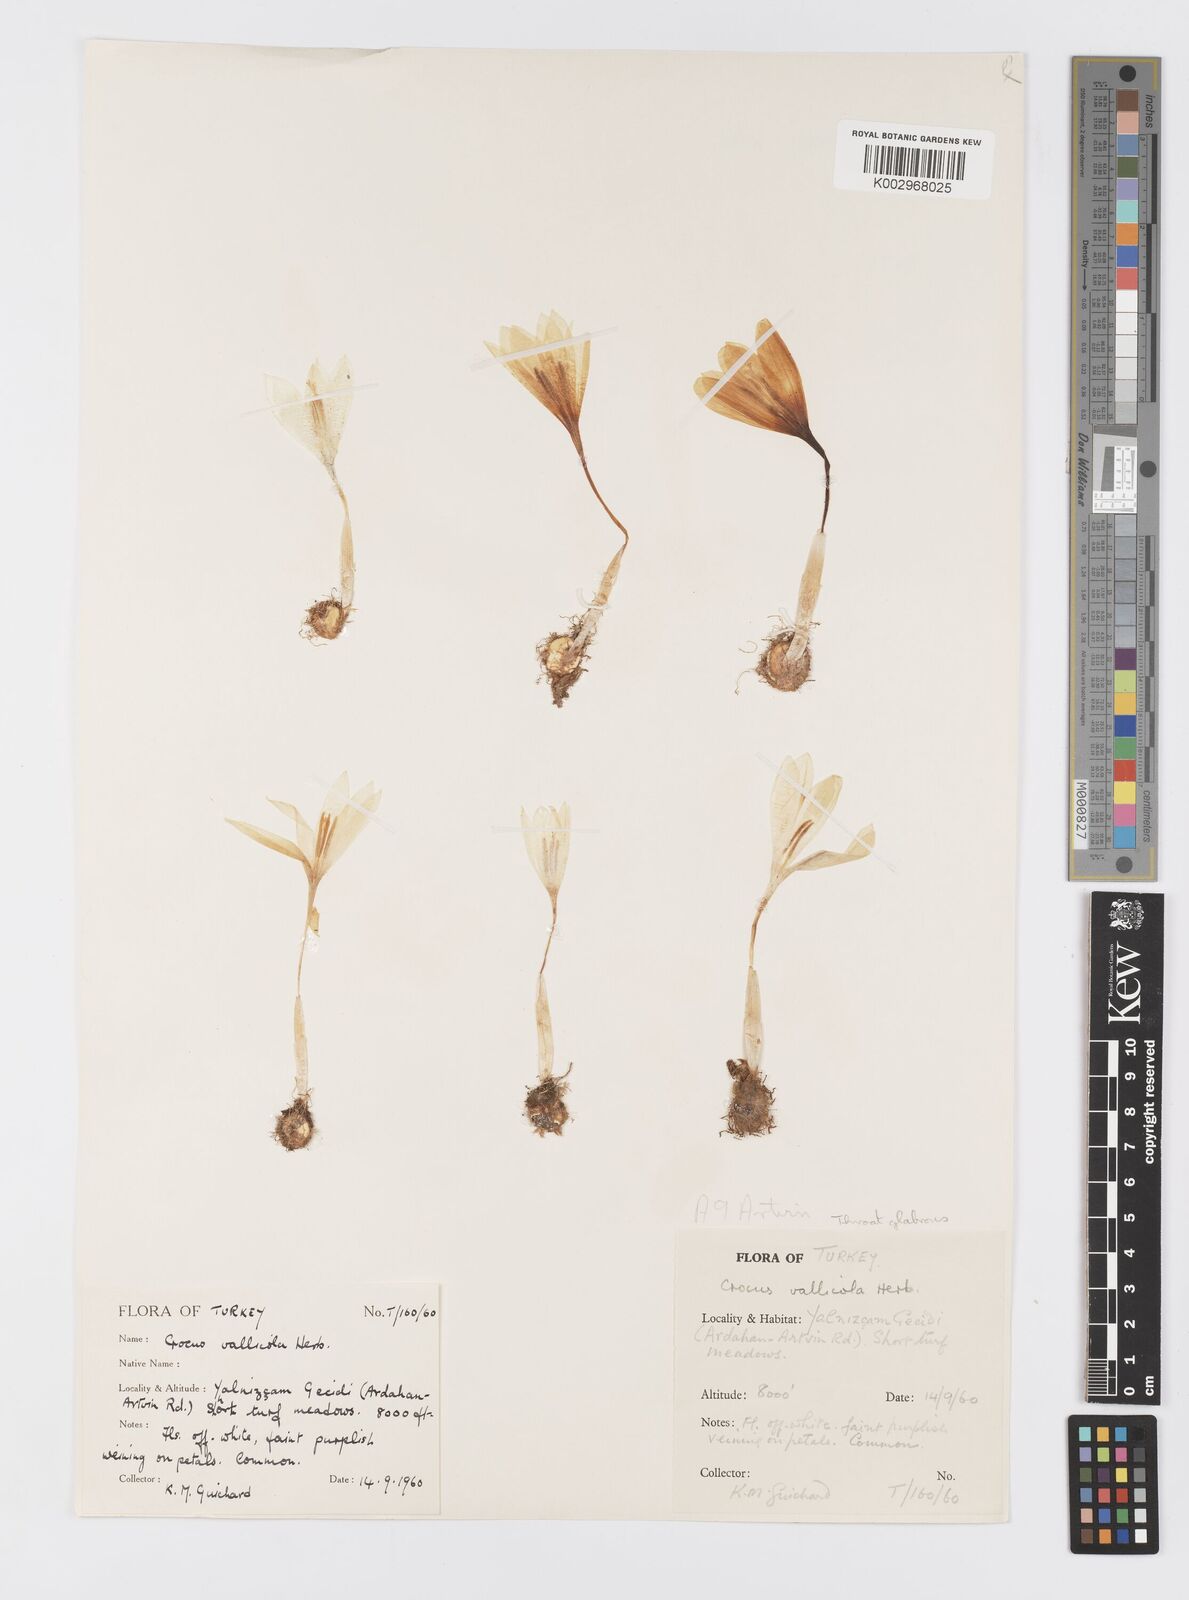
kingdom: Plantae
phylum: Tracheophyta
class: Liliopsida
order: Asparagales
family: Iridaceae
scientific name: Iridaceae
